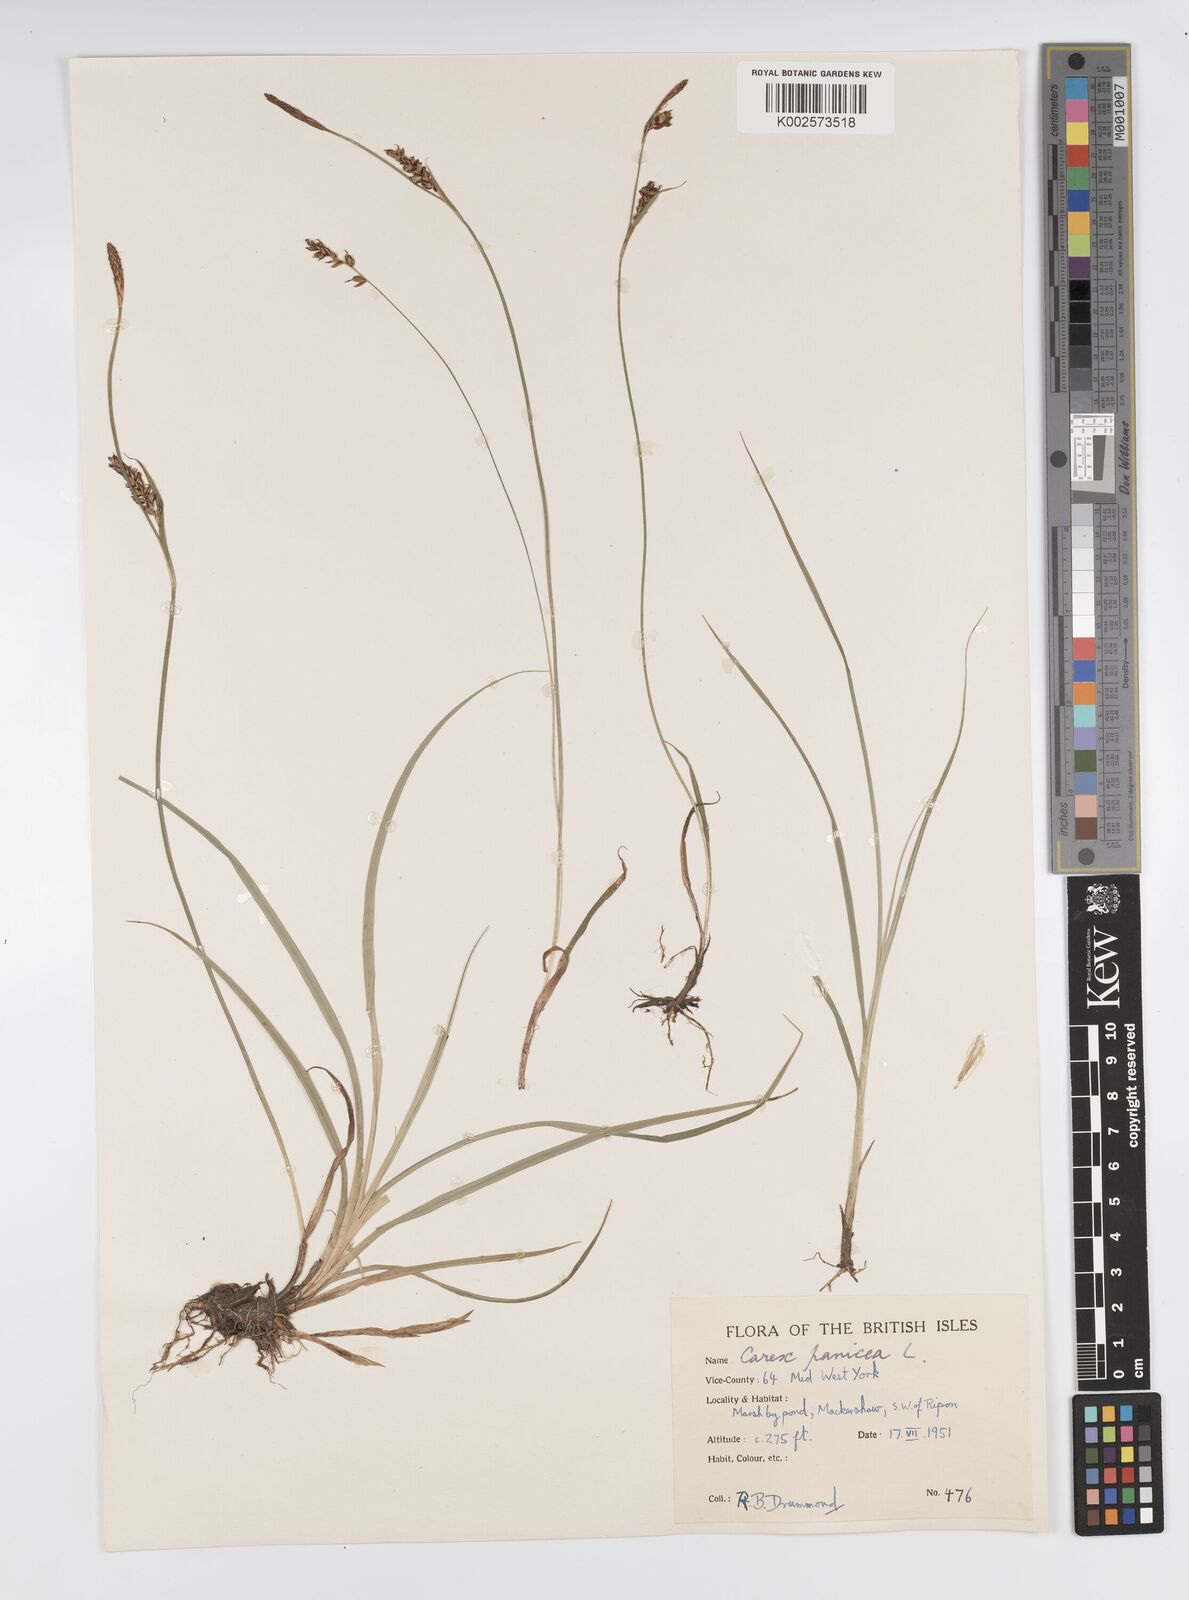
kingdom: Plantae
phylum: Tracheophyta
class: Liliopsida
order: Poales
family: Cyperaceae
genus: Carex
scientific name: Carex panicea
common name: Carnation sedge
